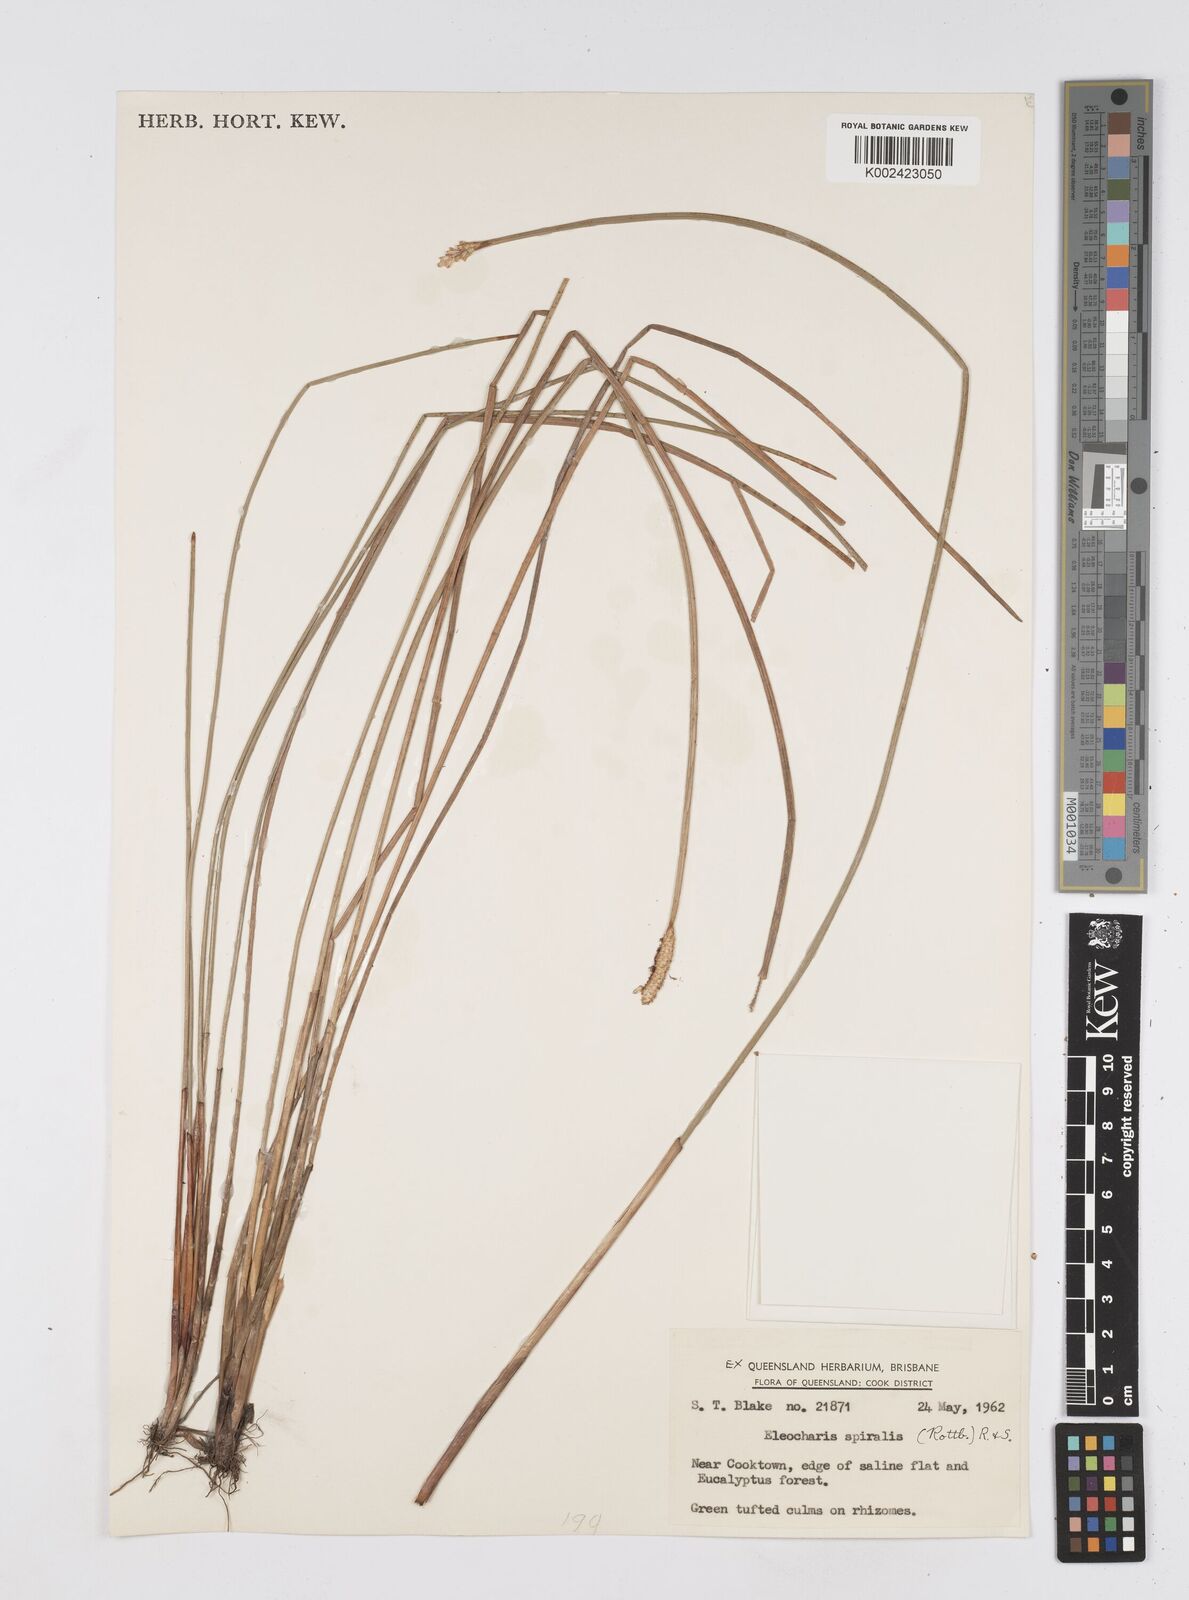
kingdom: Plantae
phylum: Tracheophyta
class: Liliopsida
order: Poales
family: Cyperaceae
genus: Eleocharis
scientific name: Eleocharis spiralis
